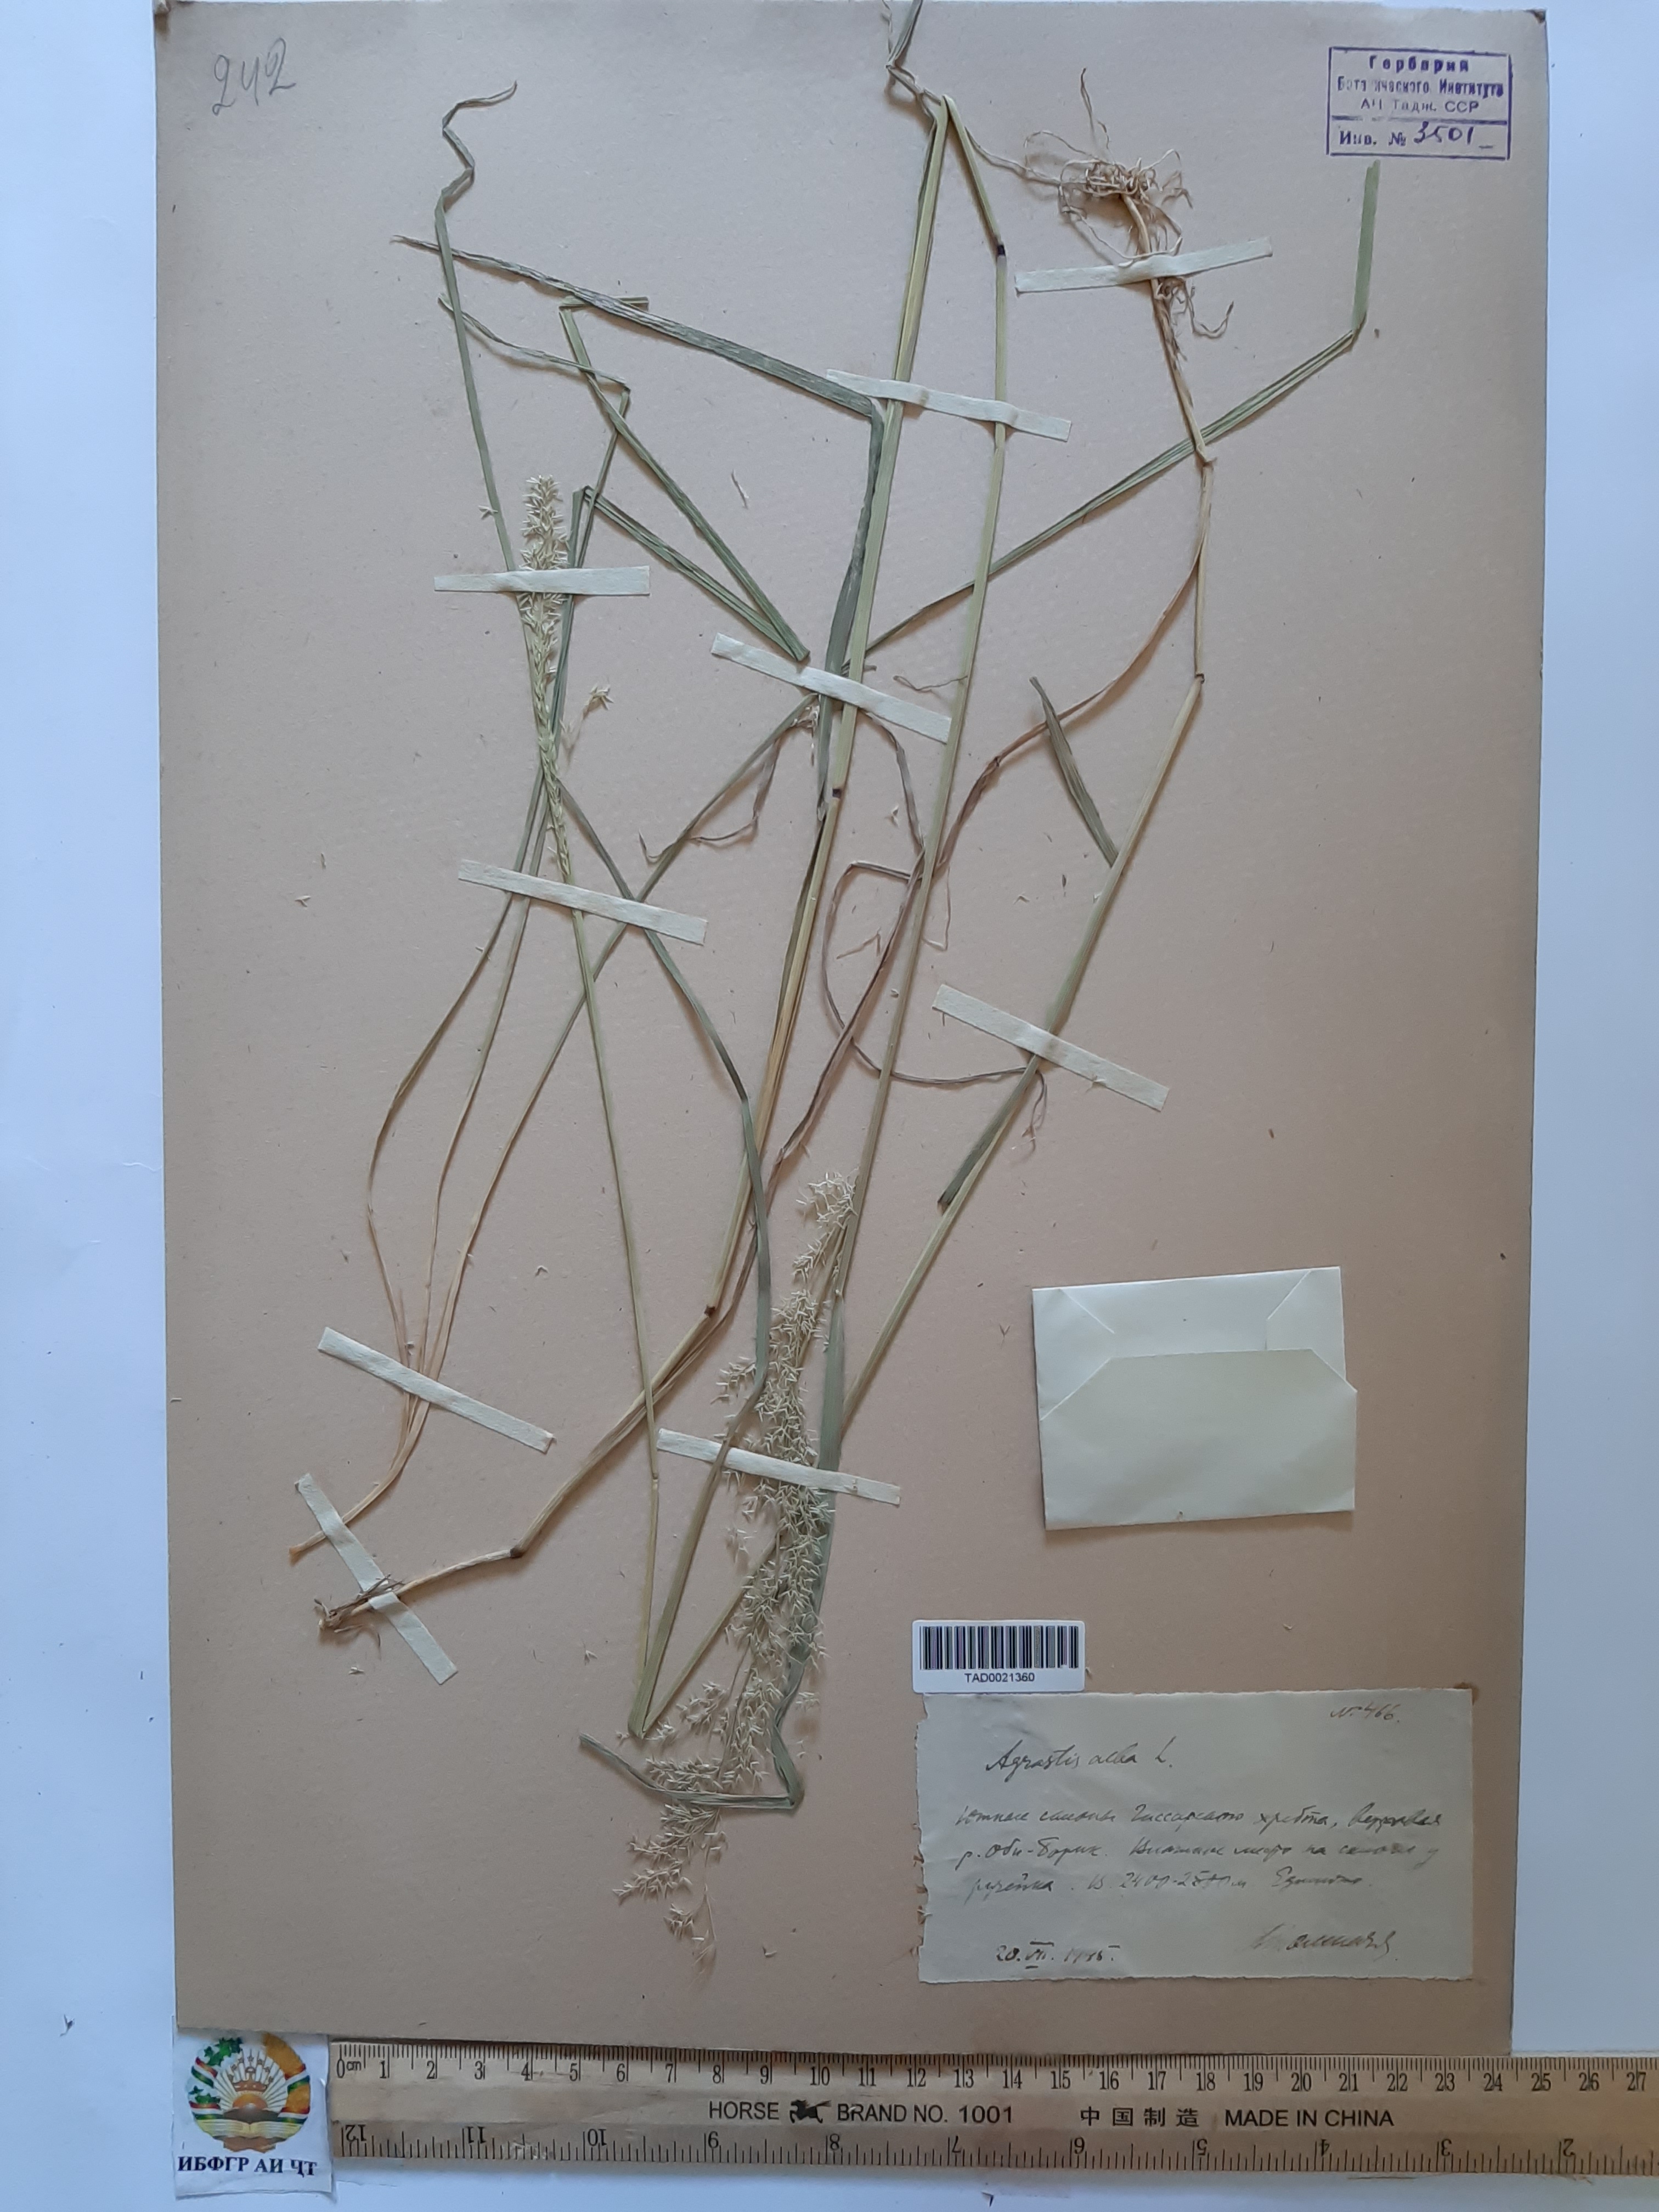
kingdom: Plantae
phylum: Tracheophyta
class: Liliopsida
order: Poales
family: Poaceae
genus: Poa
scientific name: Poa nemoralis
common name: Wood bluegrass
